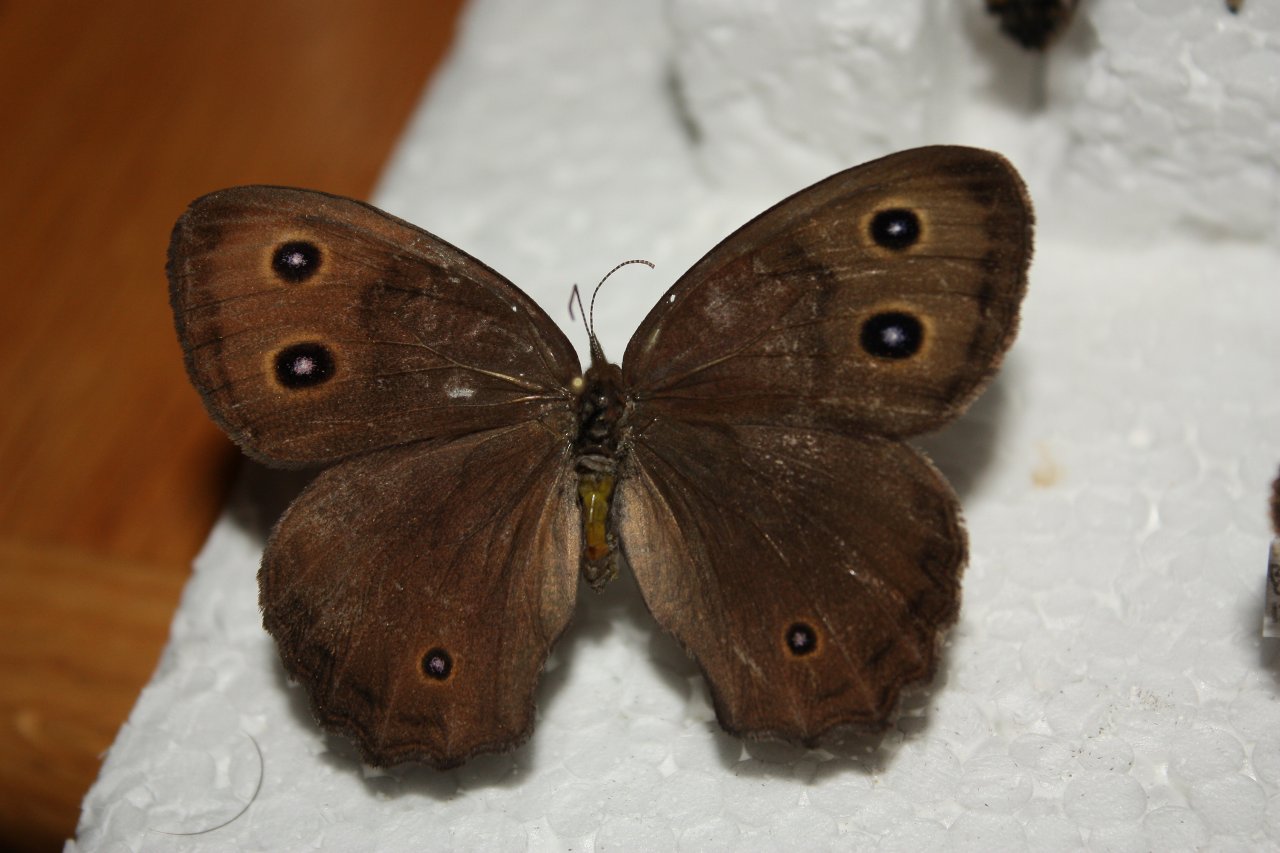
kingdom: Animalia
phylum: Arthropoda
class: Insecta
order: Lepidoptera
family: Nymphalidae
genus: Cercyonis
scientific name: Cercyonis pegala
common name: Common Wood-Nymph
